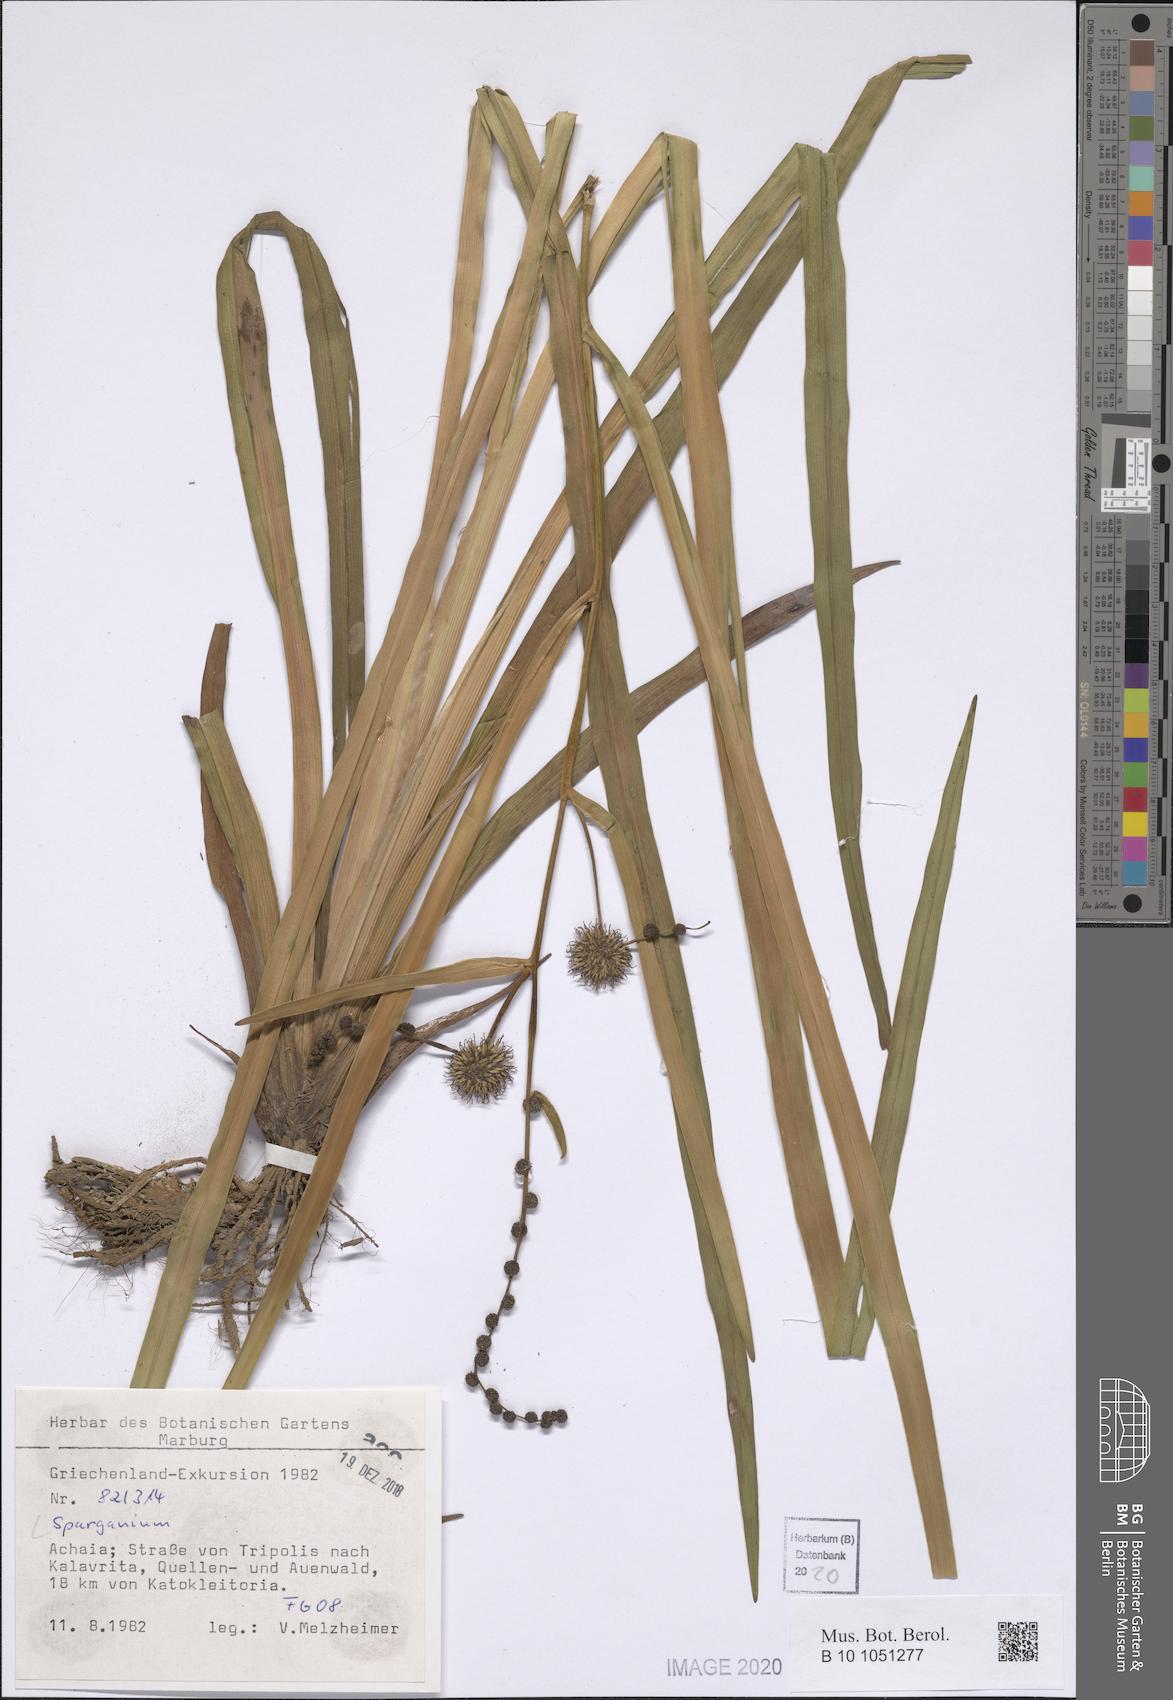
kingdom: Plantae
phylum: Tracheophyta
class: Liliopsida
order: Poales
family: Typhaceae
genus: Sparganium
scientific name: Sparganium
